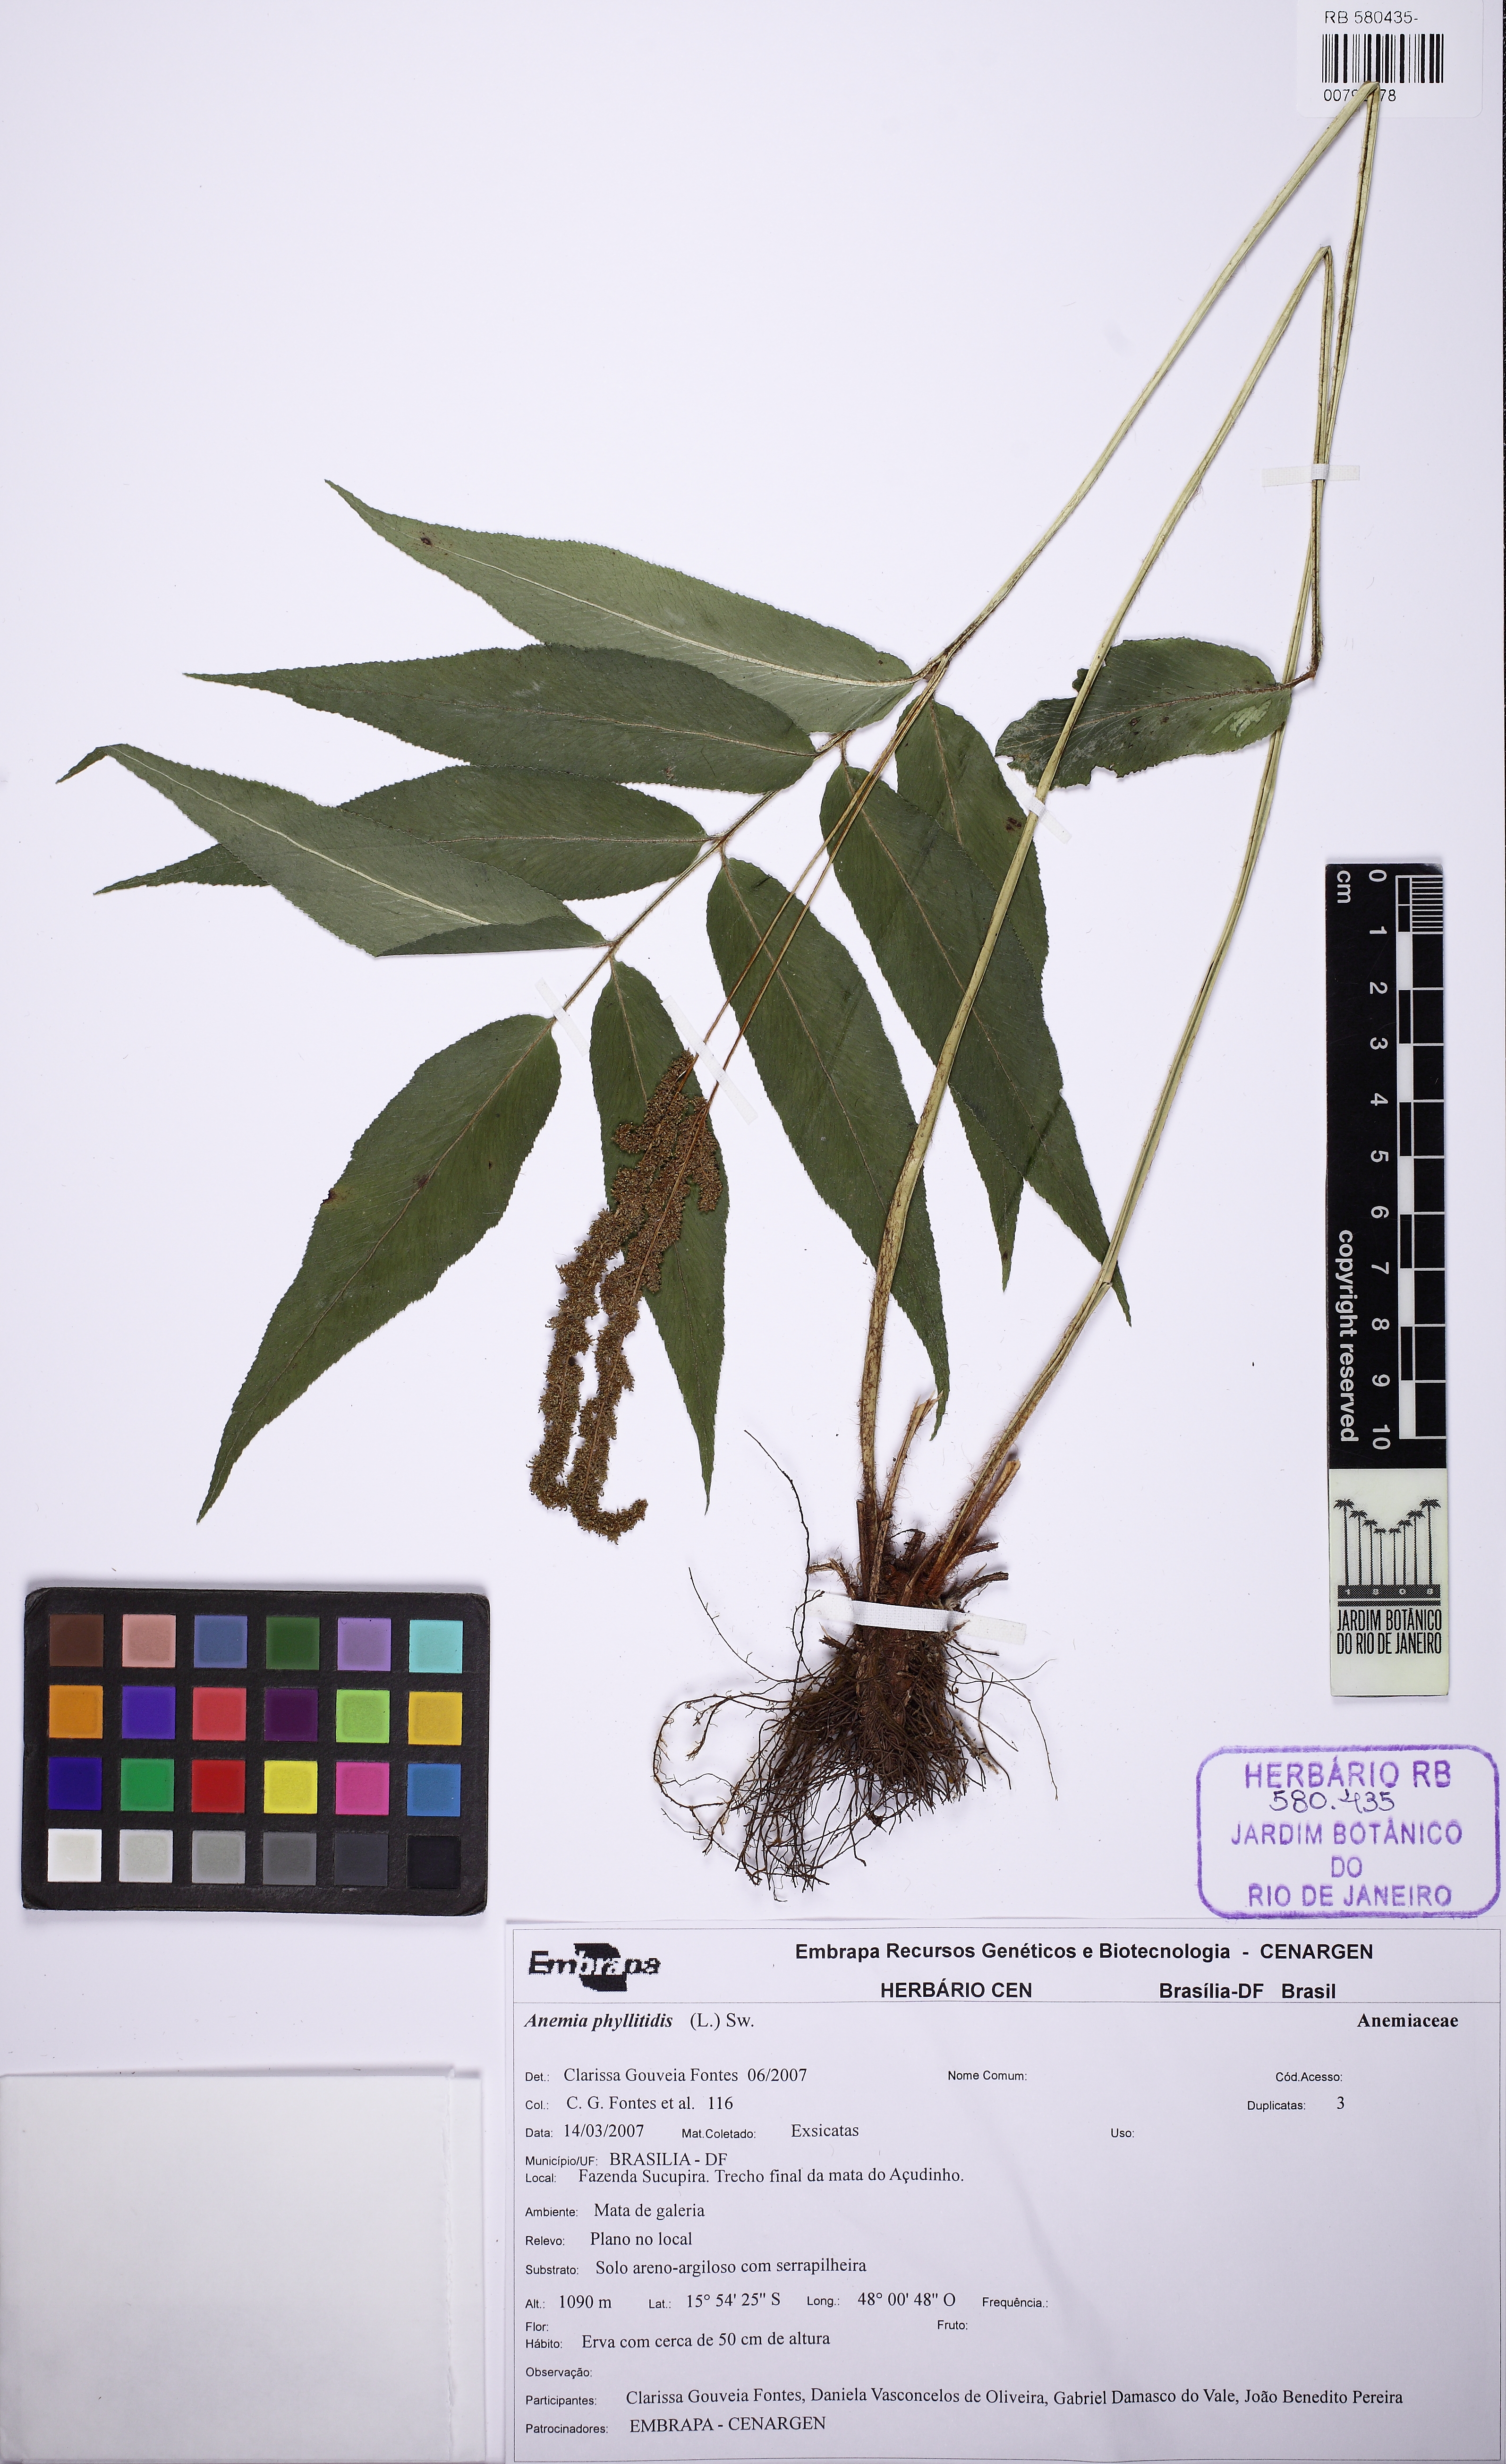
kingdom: Plantae
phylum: Tracheophyta
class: Polypodiopsida
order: Schizaeales
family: Anemiaceae
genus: Anemia
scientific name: Anemia phyllitidis
